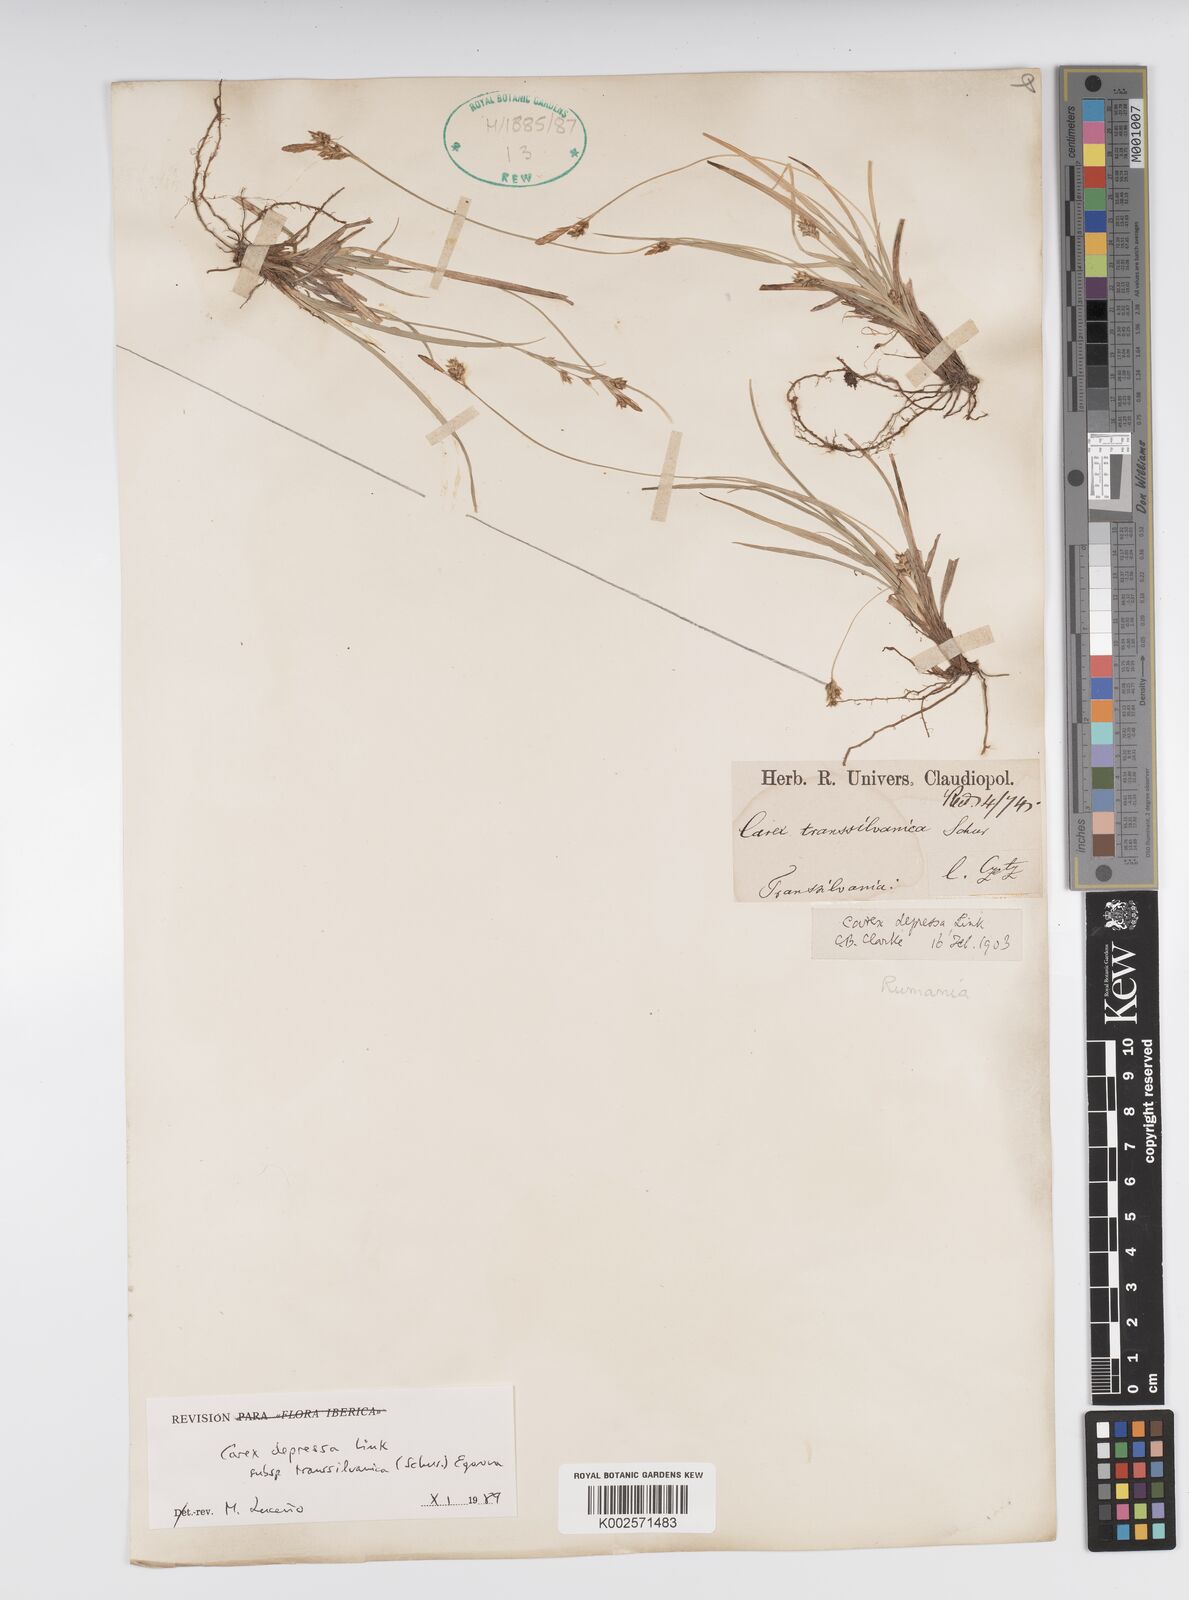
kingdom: Plantae
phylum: Tracheophyta
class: Liliopsida
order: Poales
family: Cyperaceae
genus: Carex
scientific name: Carex depressa
